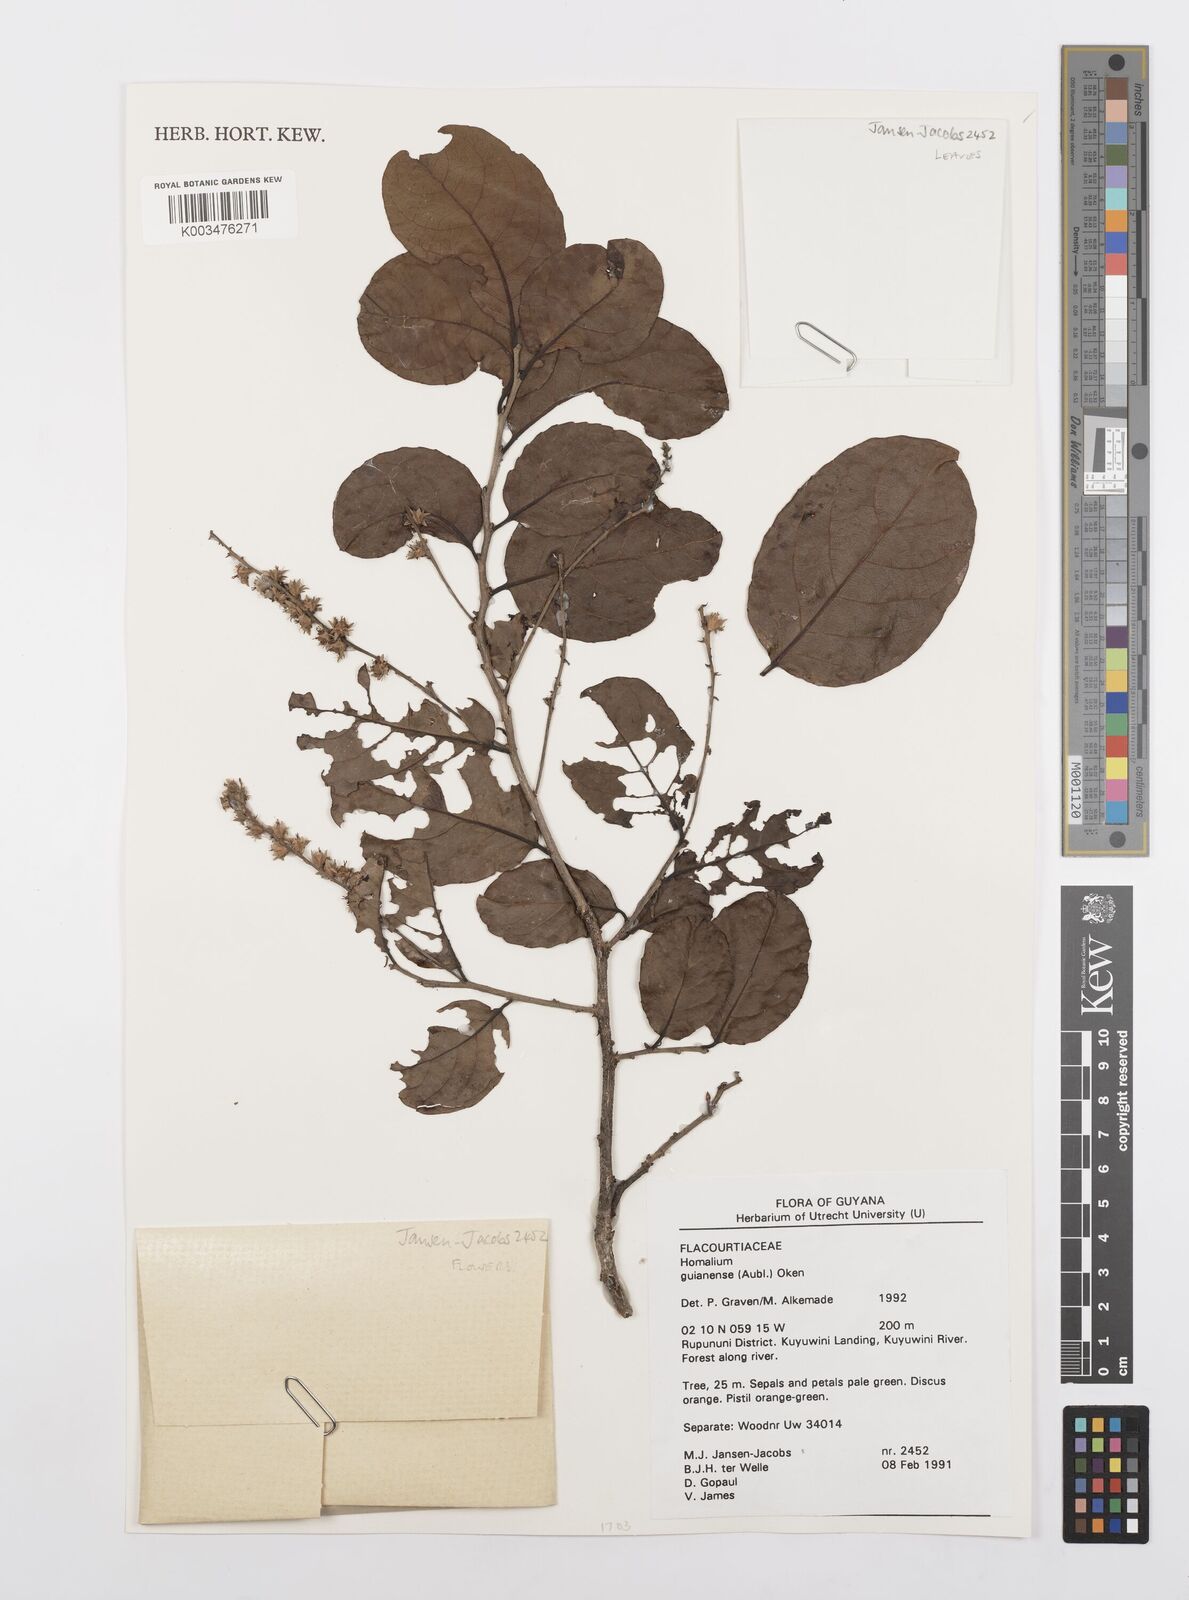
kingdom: Plantae
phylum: Tracheophyta
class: Magnoliopsida
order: Malpighiales
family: Salicaceae
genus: Homalium
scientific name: Homalium guianense
